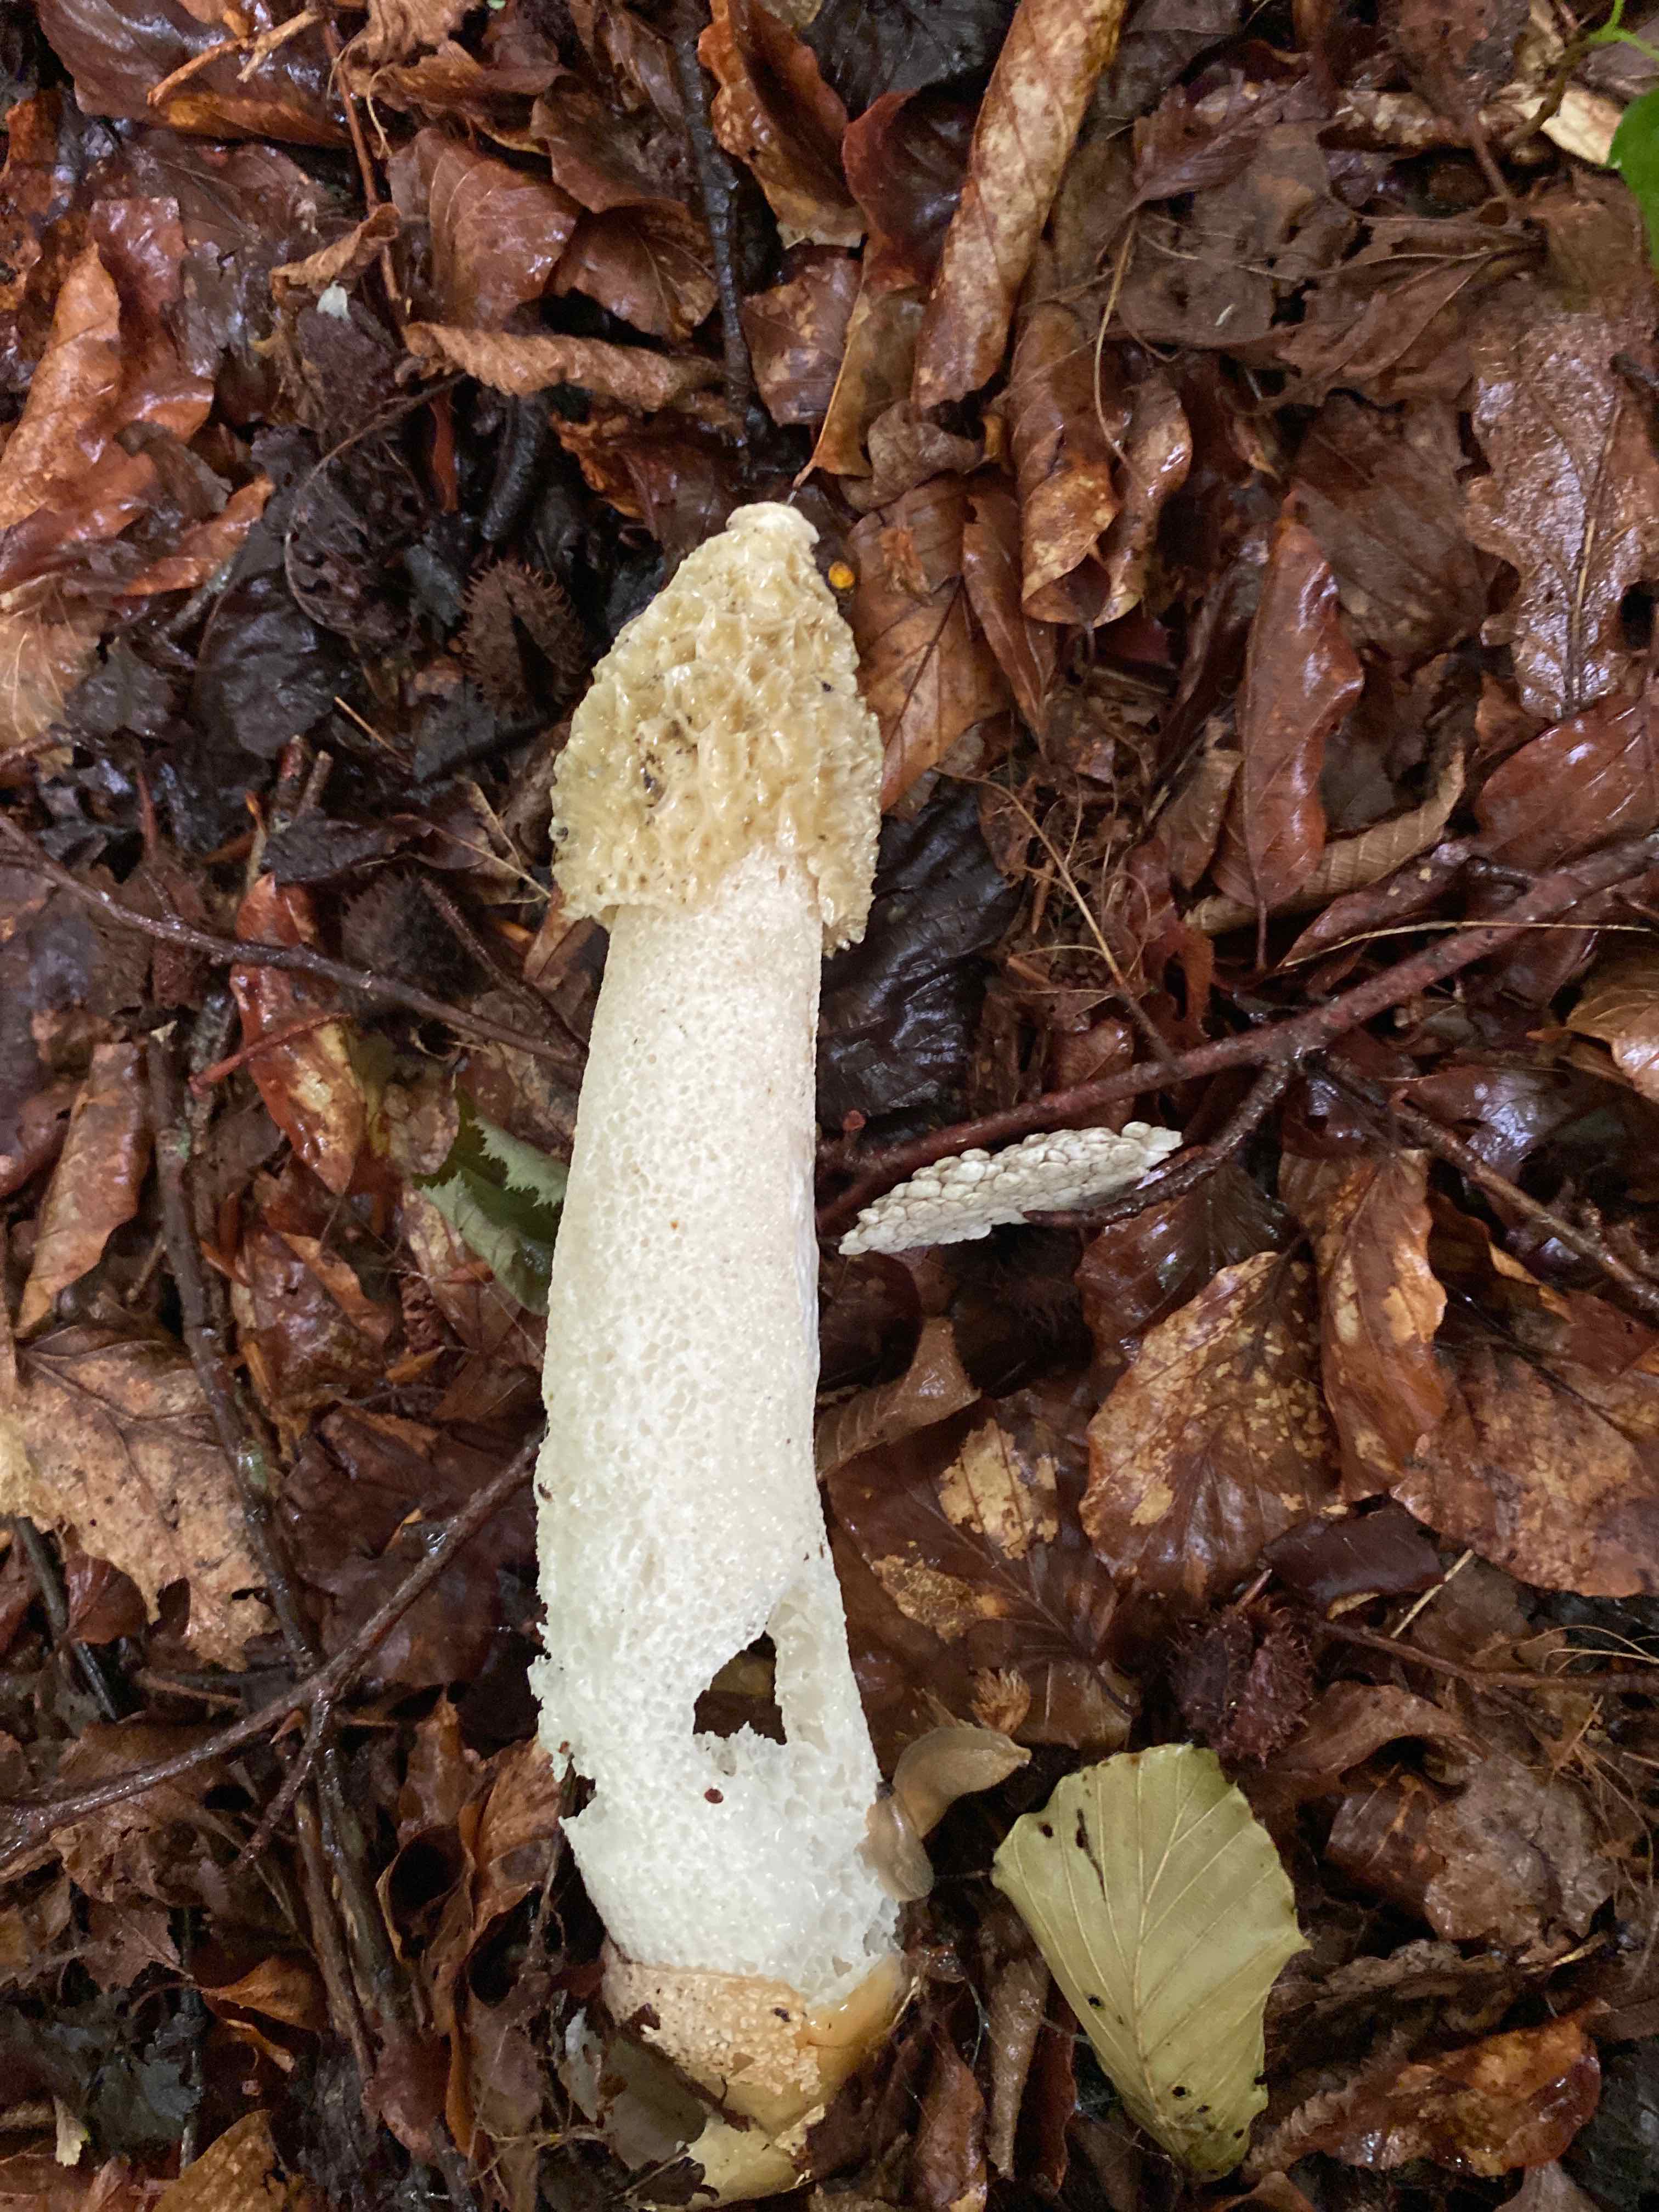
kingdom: Fungi
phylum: Basidiomycota
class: Agaricomycetes
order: Phallales
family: Phallaceae
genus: Phallus
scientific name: Phallus impudicus
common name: almindelig stinksvamp
